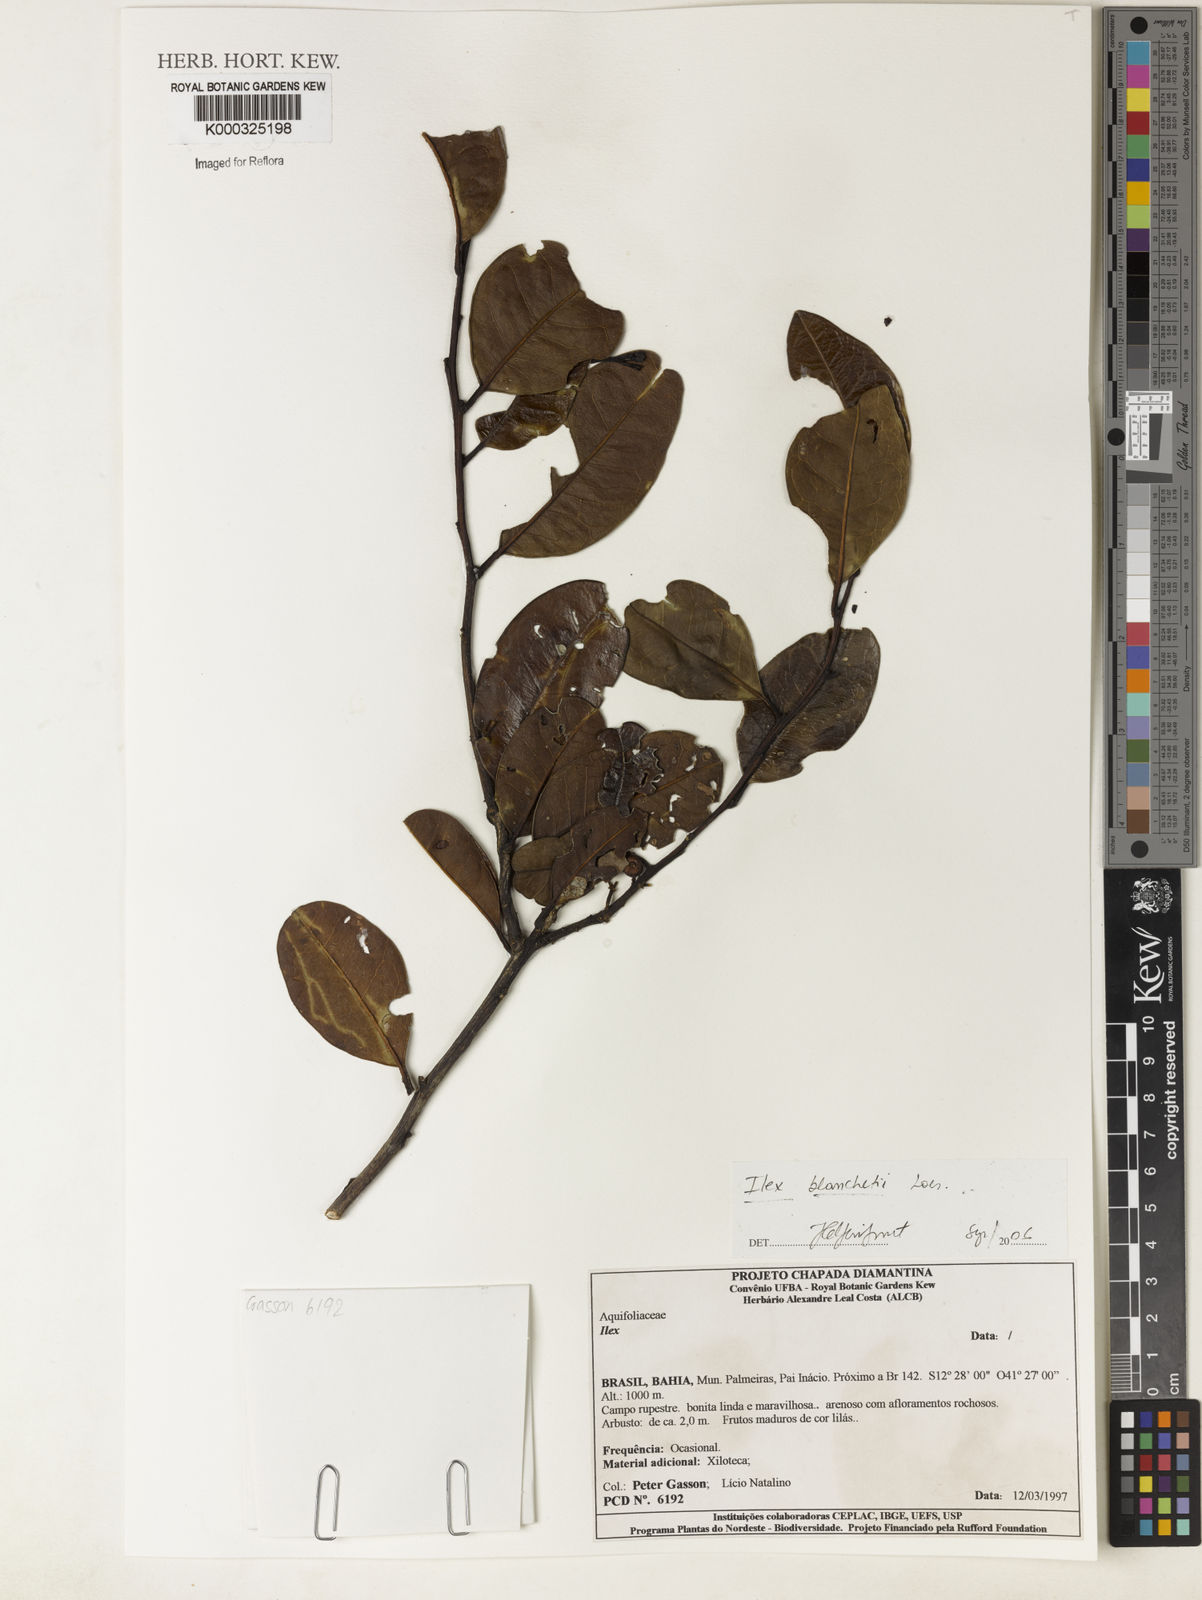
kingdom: Plantae
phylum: Tracheophyta
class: Magnoliopsida
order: Aquifoliales
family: Aquifoliaceae
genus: Ilex
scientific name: Ilex blanchetii
